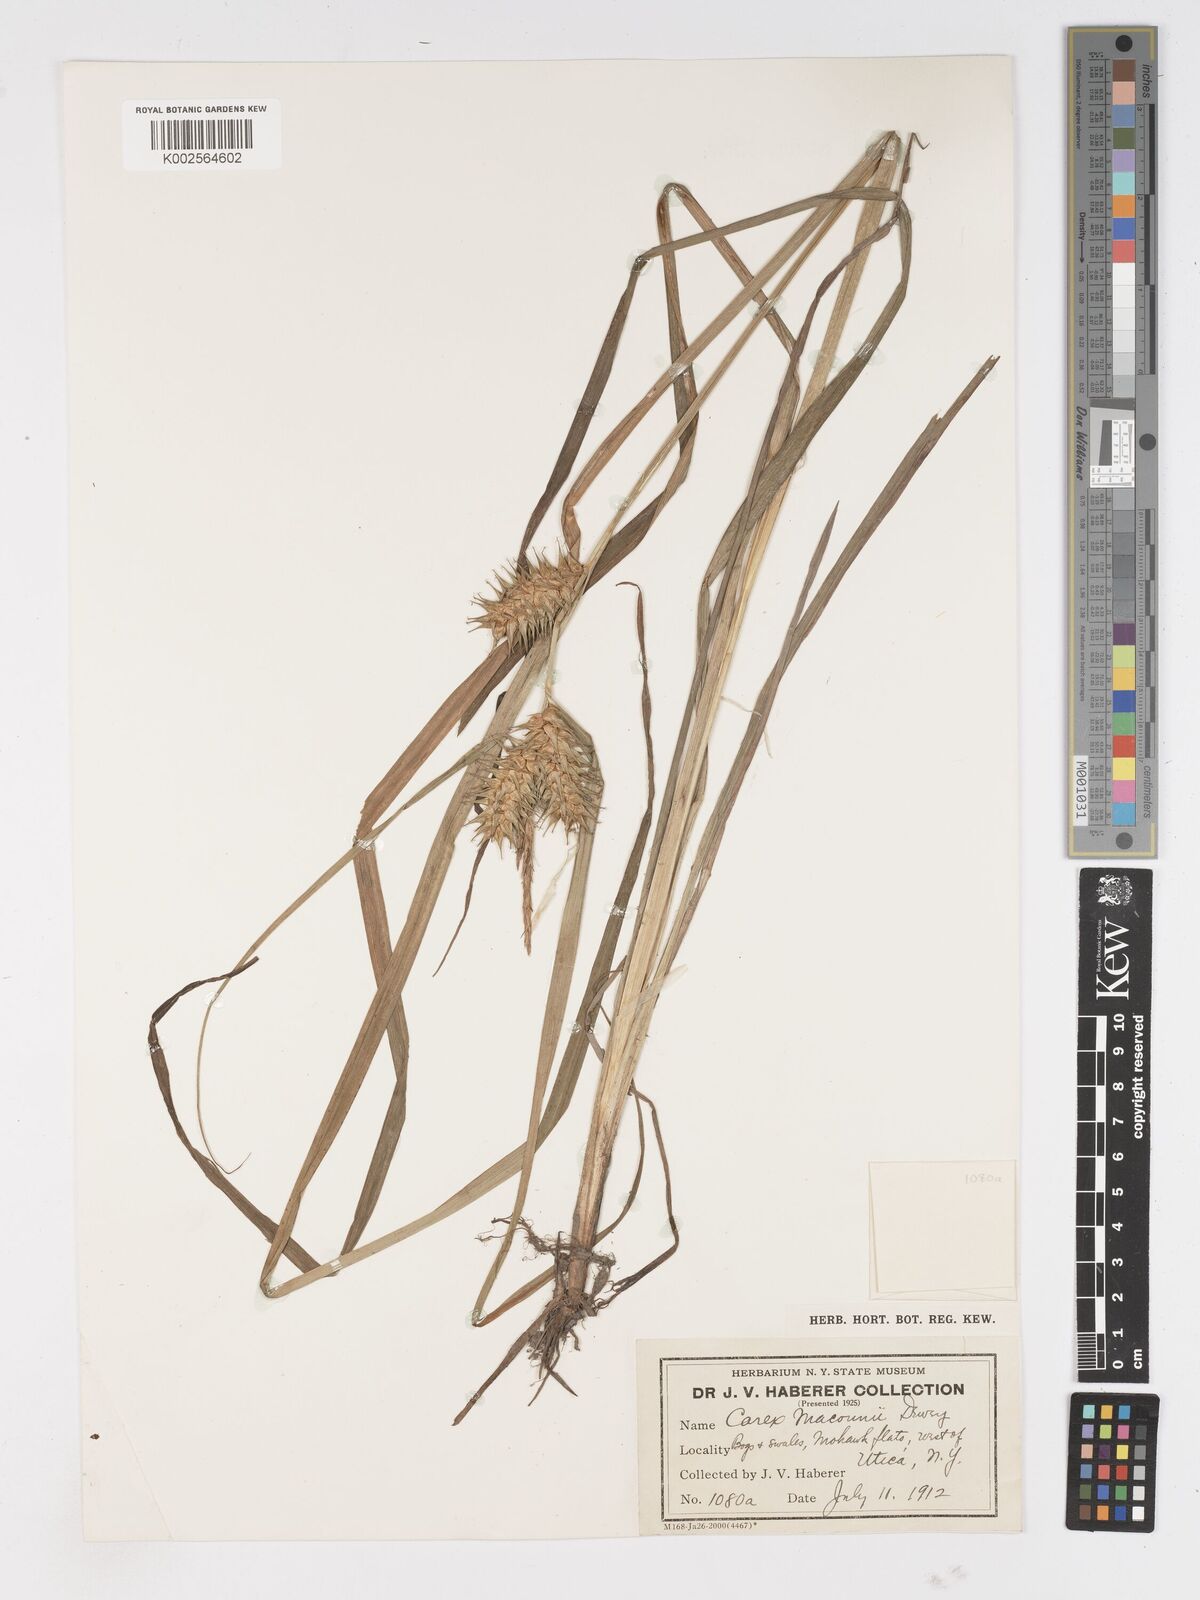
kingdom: Plantae
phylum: Tracheophyta
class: Liliopsida
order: Poales
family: Cyperaceae
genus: Carex
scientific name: Carex macounii
